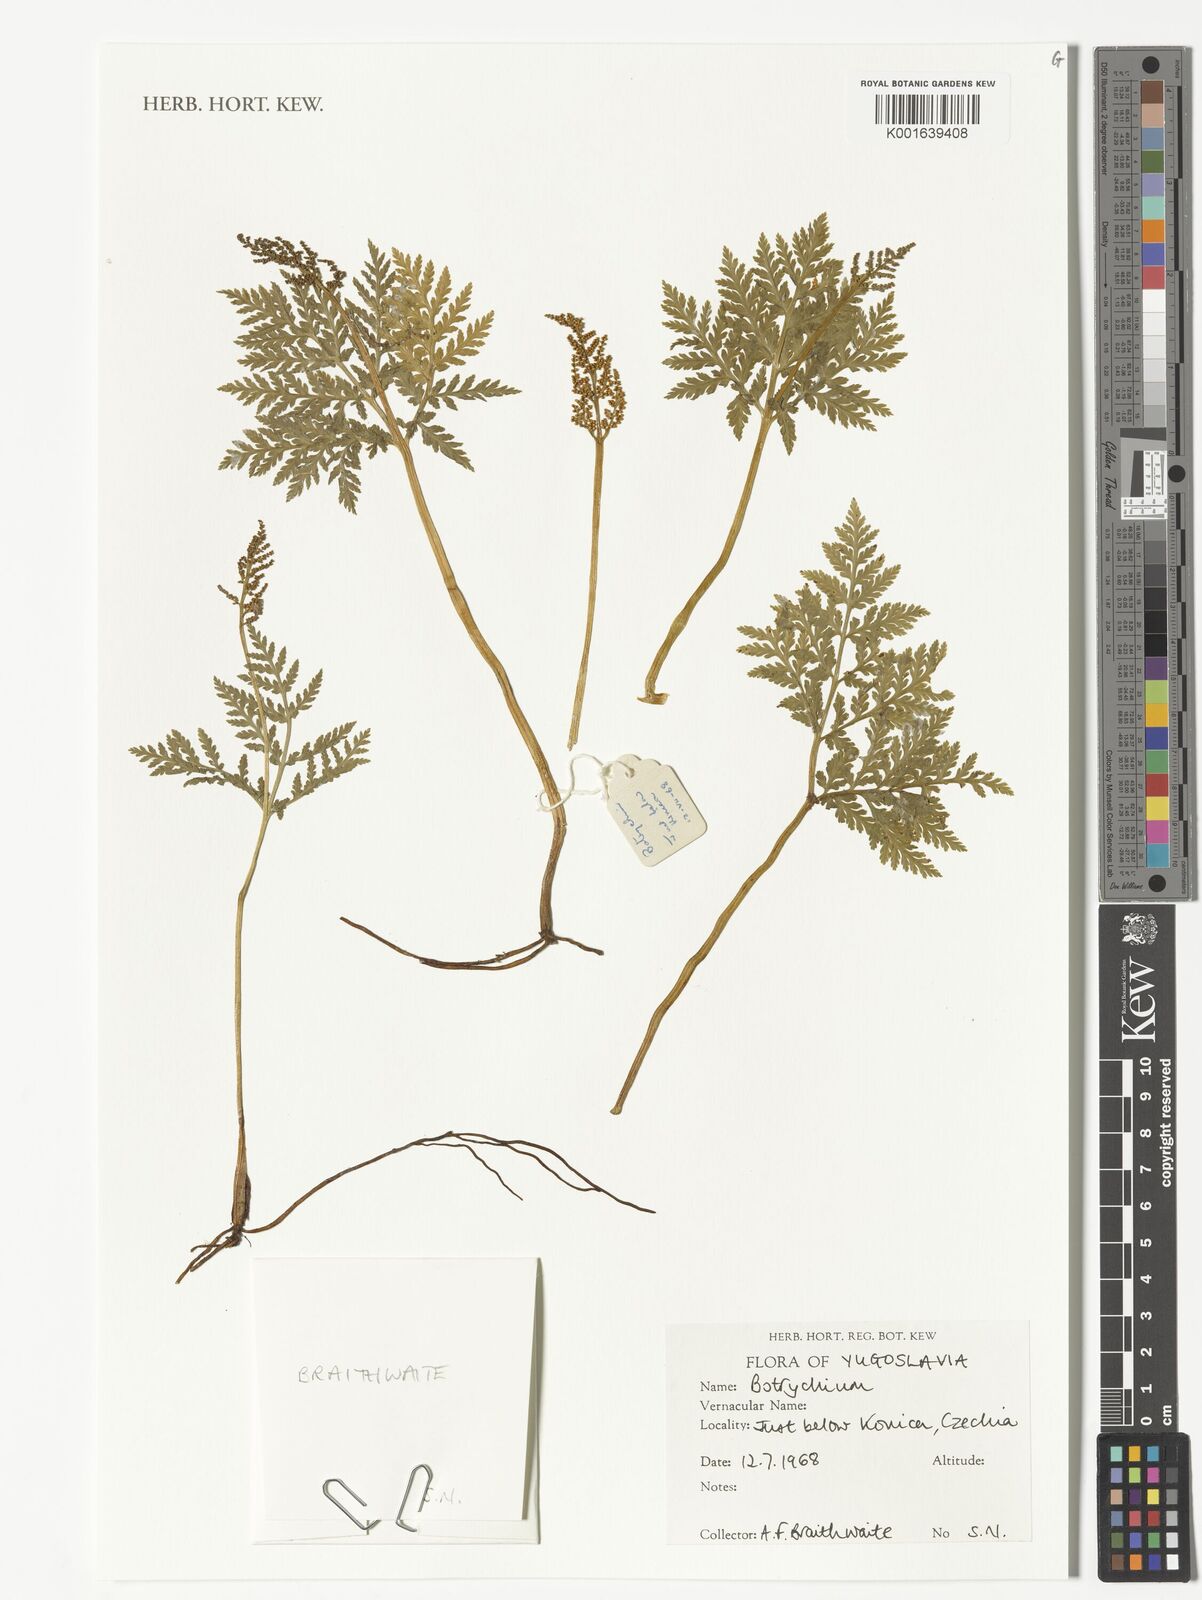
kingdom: Plantae
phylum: Tracheophyta
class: Polypodiopsida
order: Ophioglossales
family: Ophioglossaceae
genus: Botrychium
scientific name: Botrychium
